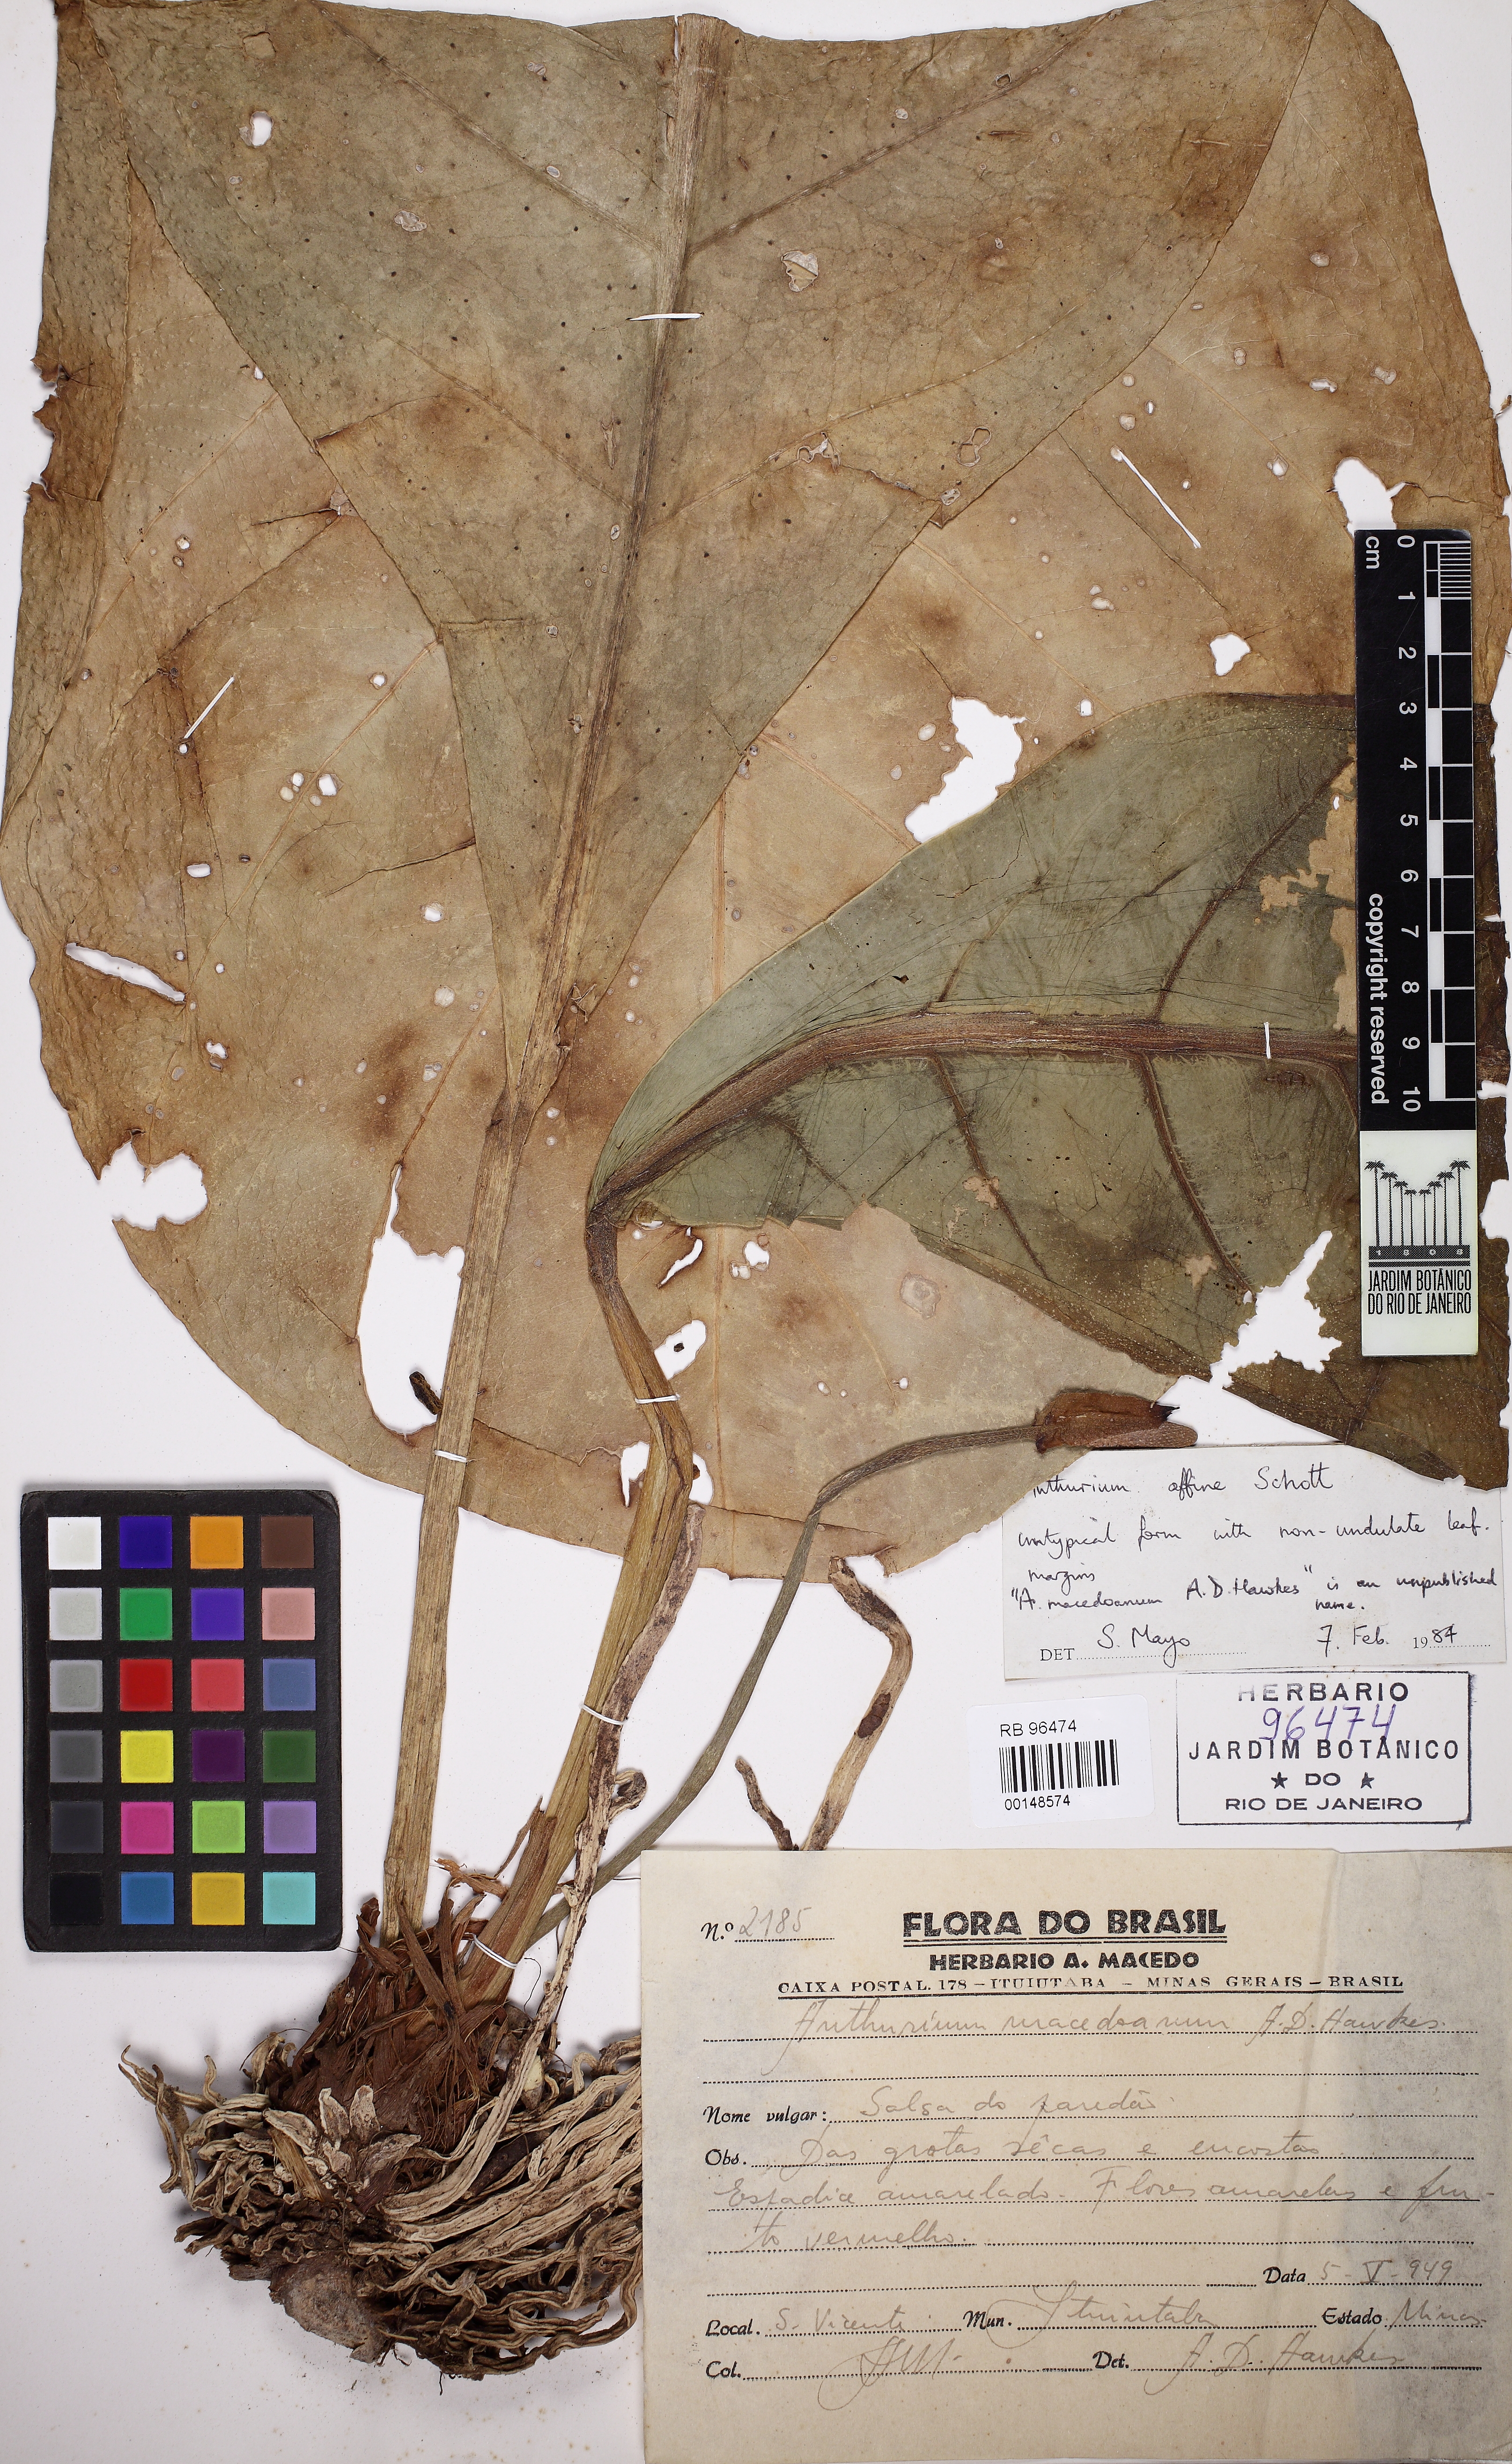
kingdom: Plantae
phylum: Tracheophyta
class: Liliopsida
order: Alismatales
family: Araceae
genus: Anthurium
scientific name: Anthurium affine
